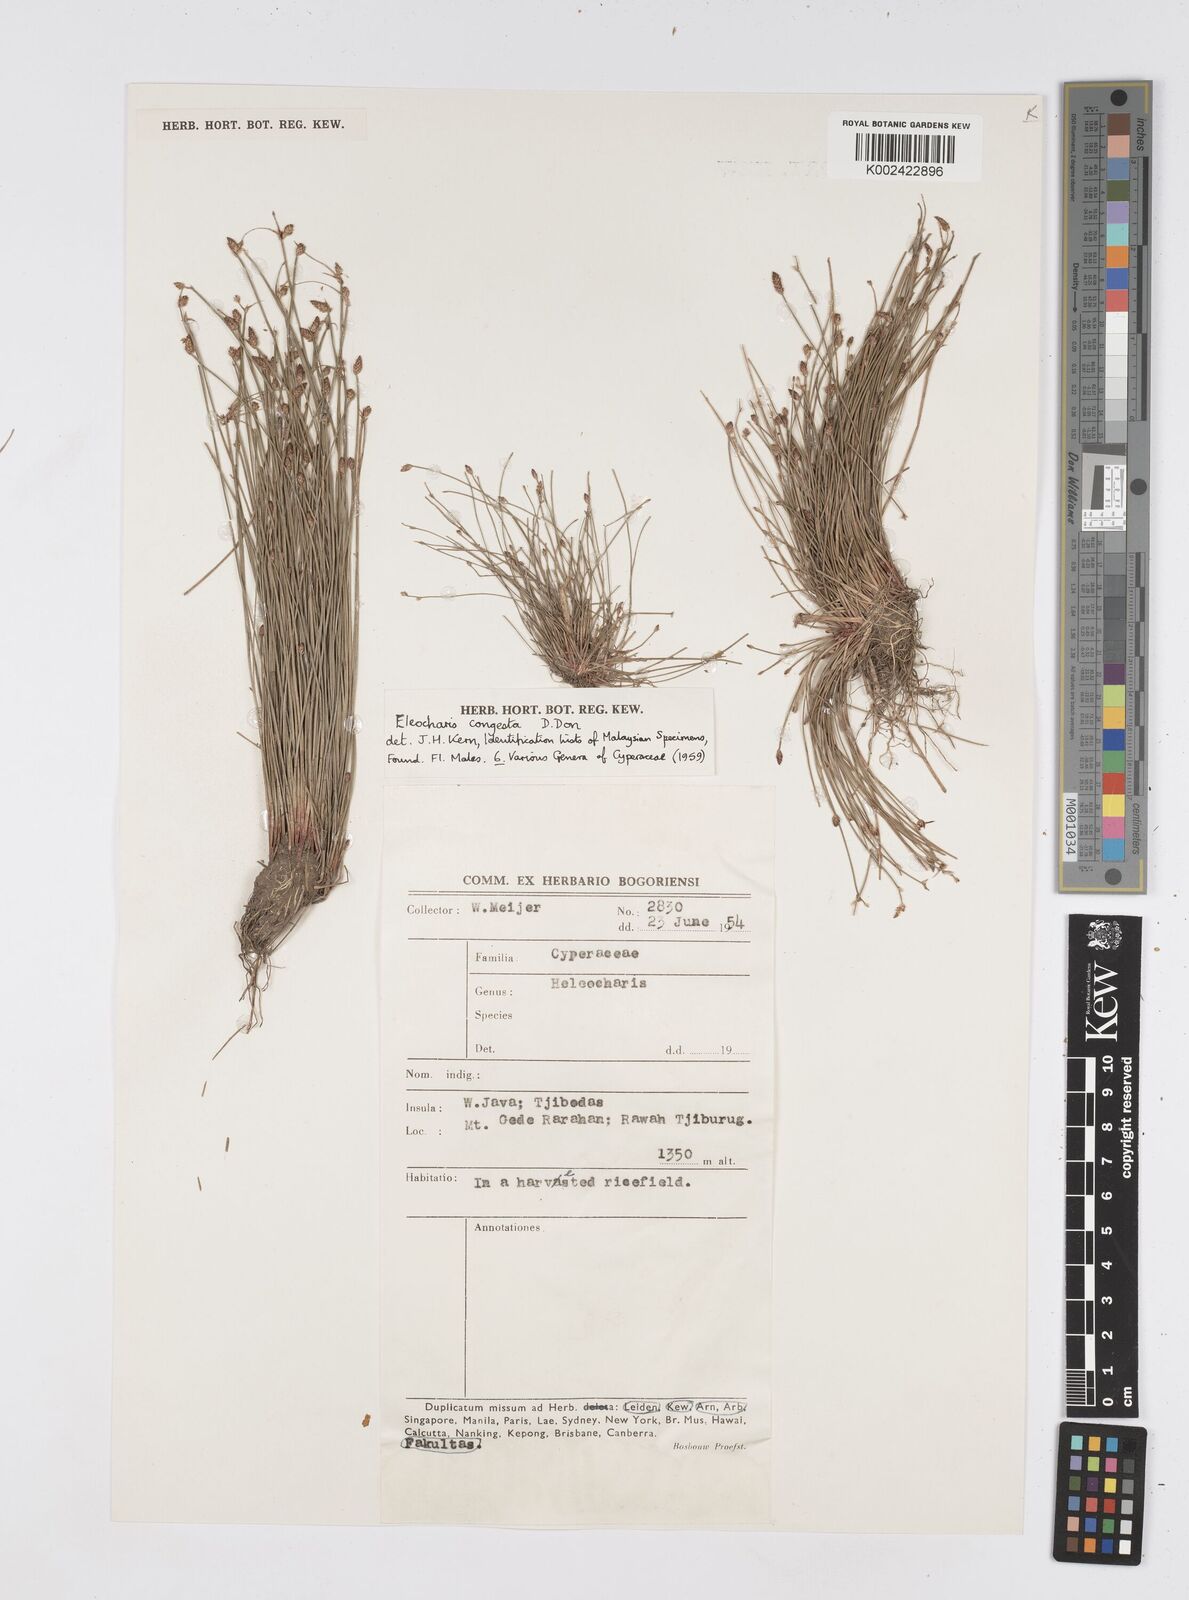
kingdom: Plantae
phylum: Tracheophyta
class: Liliopsida
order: Poales
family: Cyperaceae
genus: Eleocharis
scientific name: Eleocharis congesta
